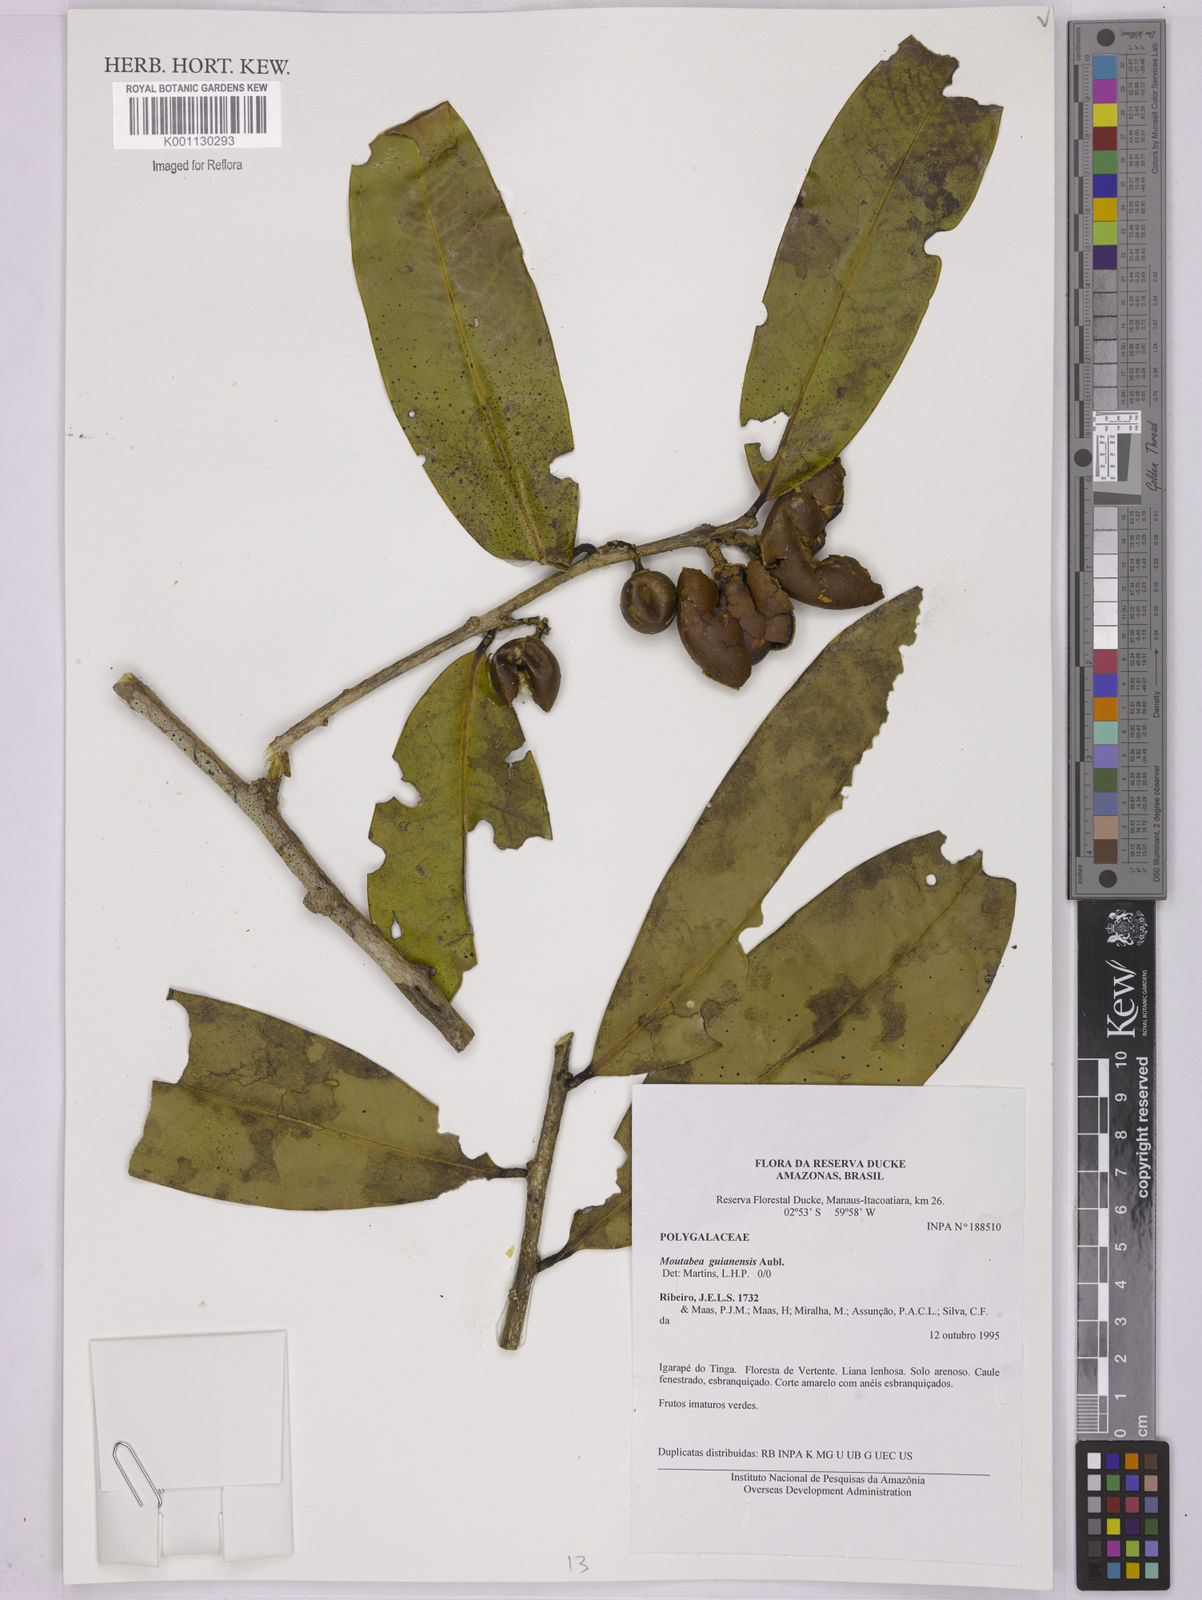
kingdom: Plantae
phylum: Tracheophyta
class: Magnoliopsida
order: Fabales
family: Polygalaceae
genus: Moutabea
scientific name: Moutabea guianensis
